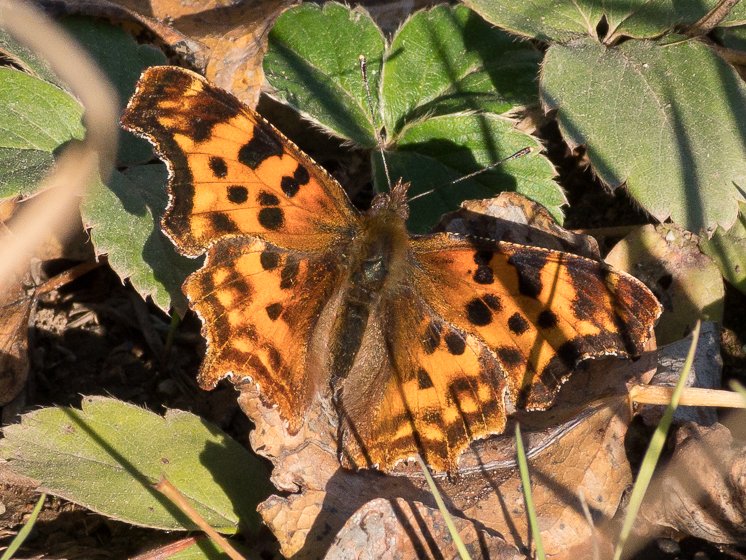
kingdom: Animalia
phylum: Arthropoda
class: Insecta
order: Lepidoptera
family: Nymphalidae
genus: Polygonia
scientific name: Polygonia satyrus
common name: Satyr Comma
